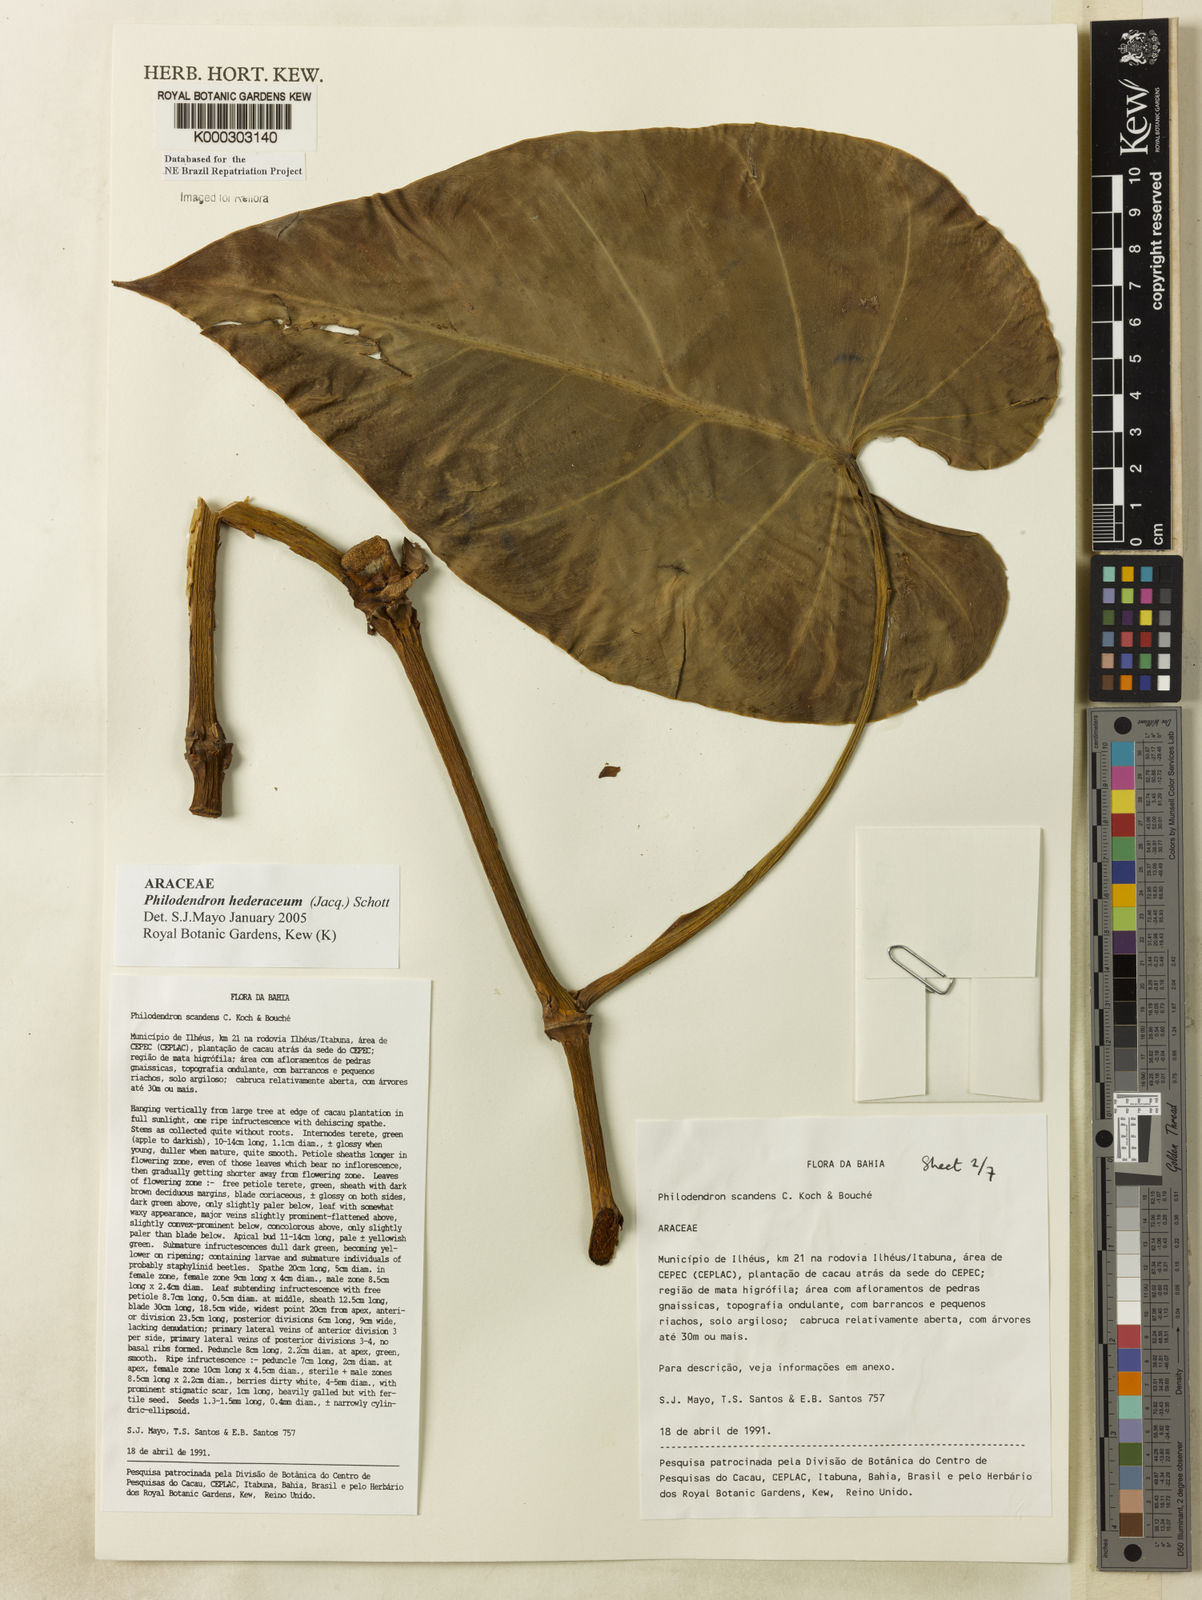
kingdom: Plantae
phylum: Tracheophyta
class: Liliopsida
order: Alismatales
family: Araceae
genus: Philodendron
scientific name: Philodendron hederaceum
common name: Vilevine
